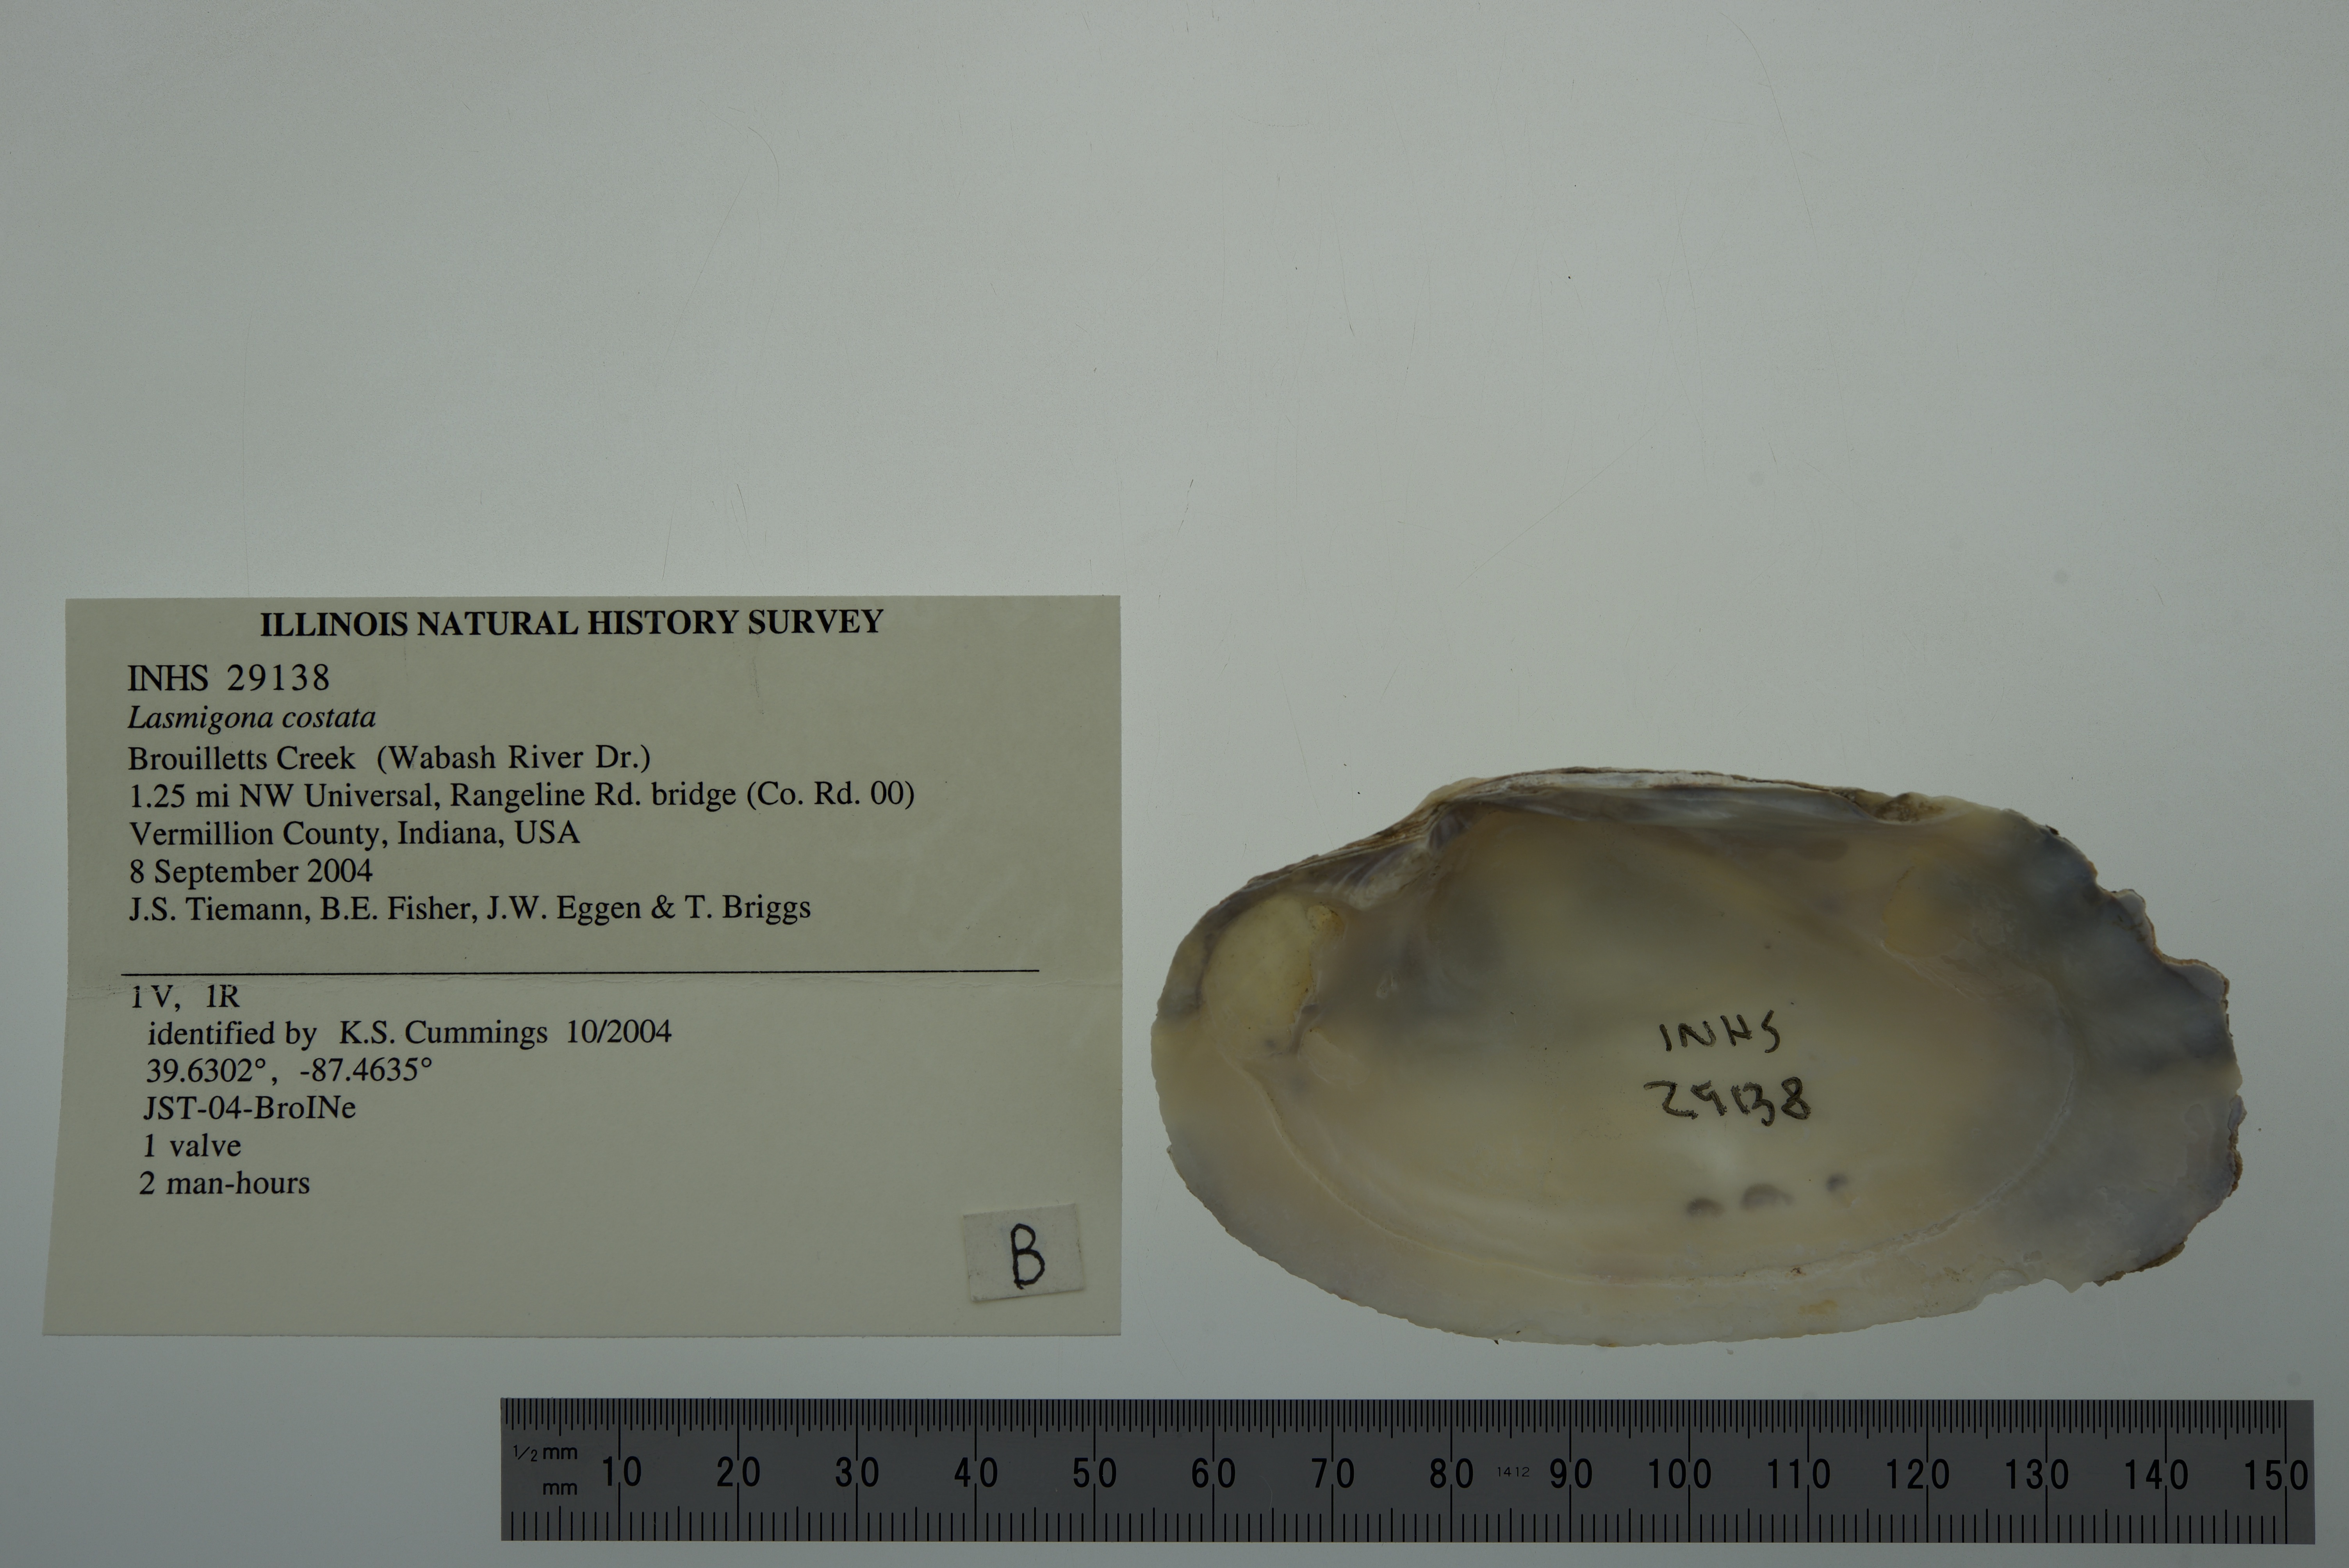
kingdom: Animalia
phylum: Mollusca
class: Bivalvia
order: Unionida
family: Unionidae
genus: Lasmigona
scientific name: Lasmigona costata
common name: Flutedshell
